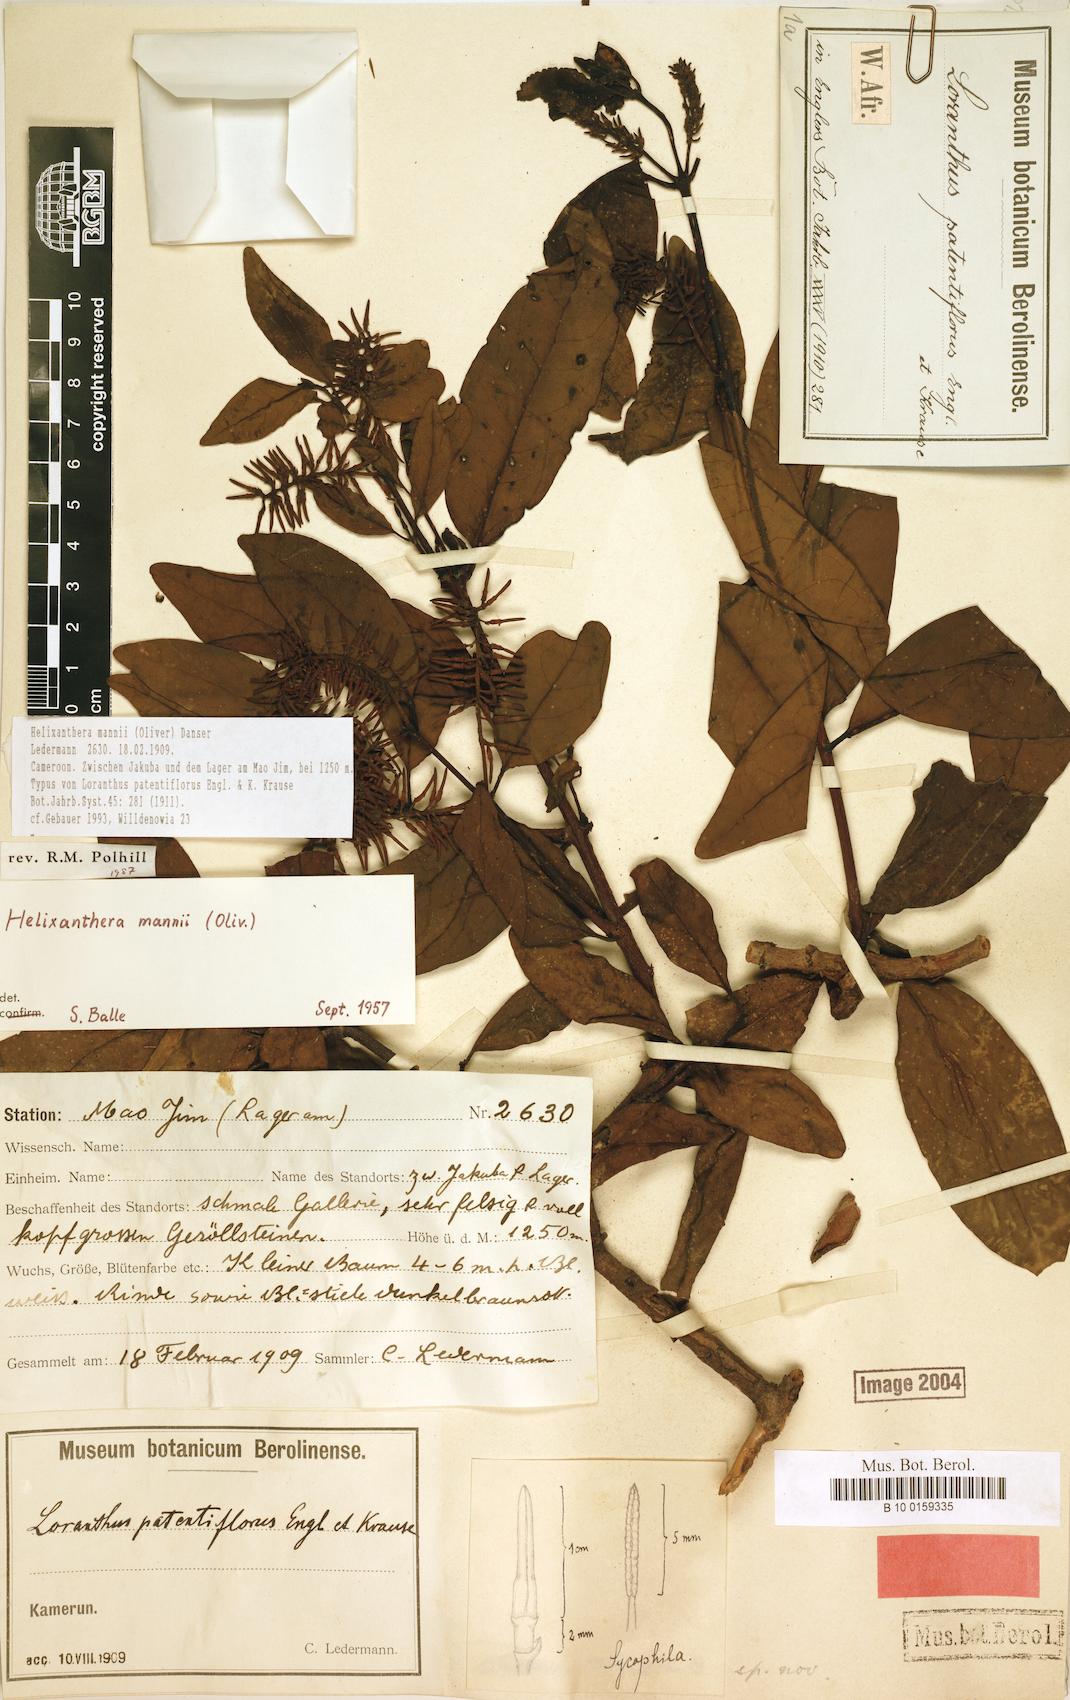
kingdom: Plantae
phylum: Tracheophyta
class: Magnoliopsida
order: Santalales
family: Loranthaceae
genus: Helixanthera
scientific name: Helixanthera mannii
